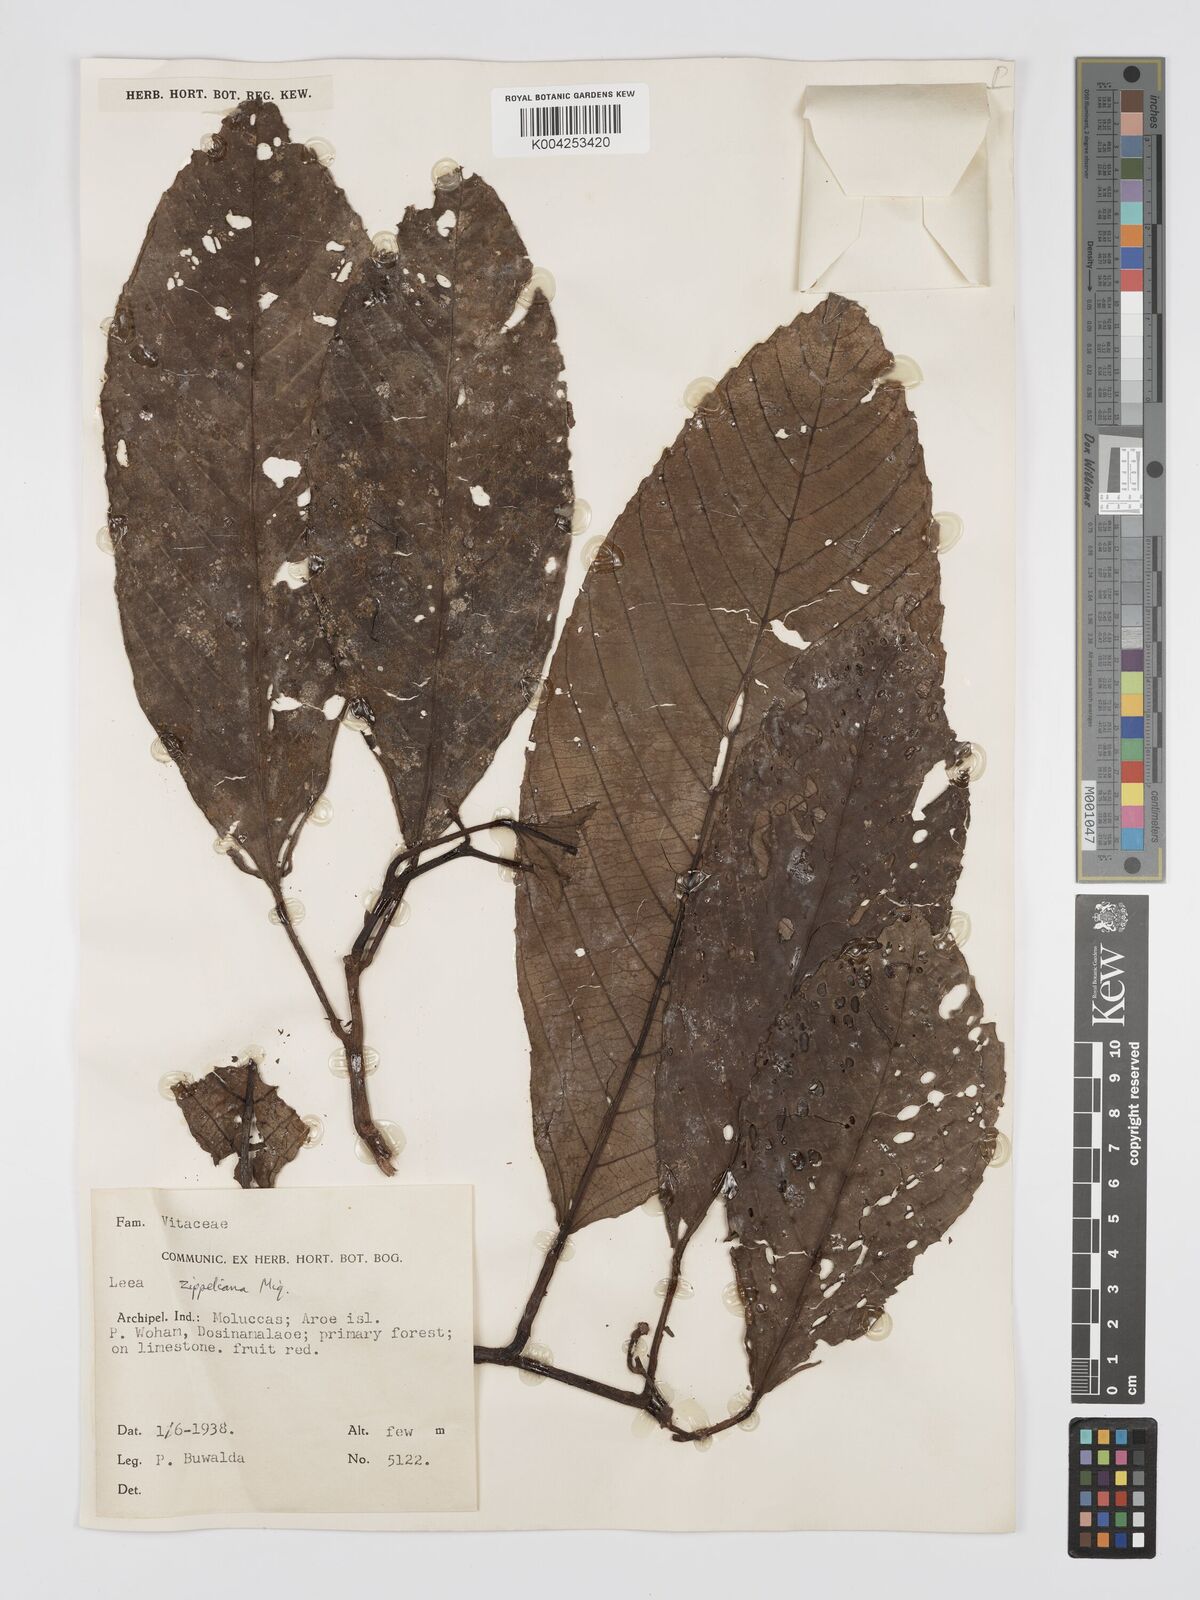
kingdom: Plantae
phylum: Tracheophyta
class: Magnoliopsida
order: Vitales
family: Vitaceae
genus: Leea
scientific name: Leea zippeliana
